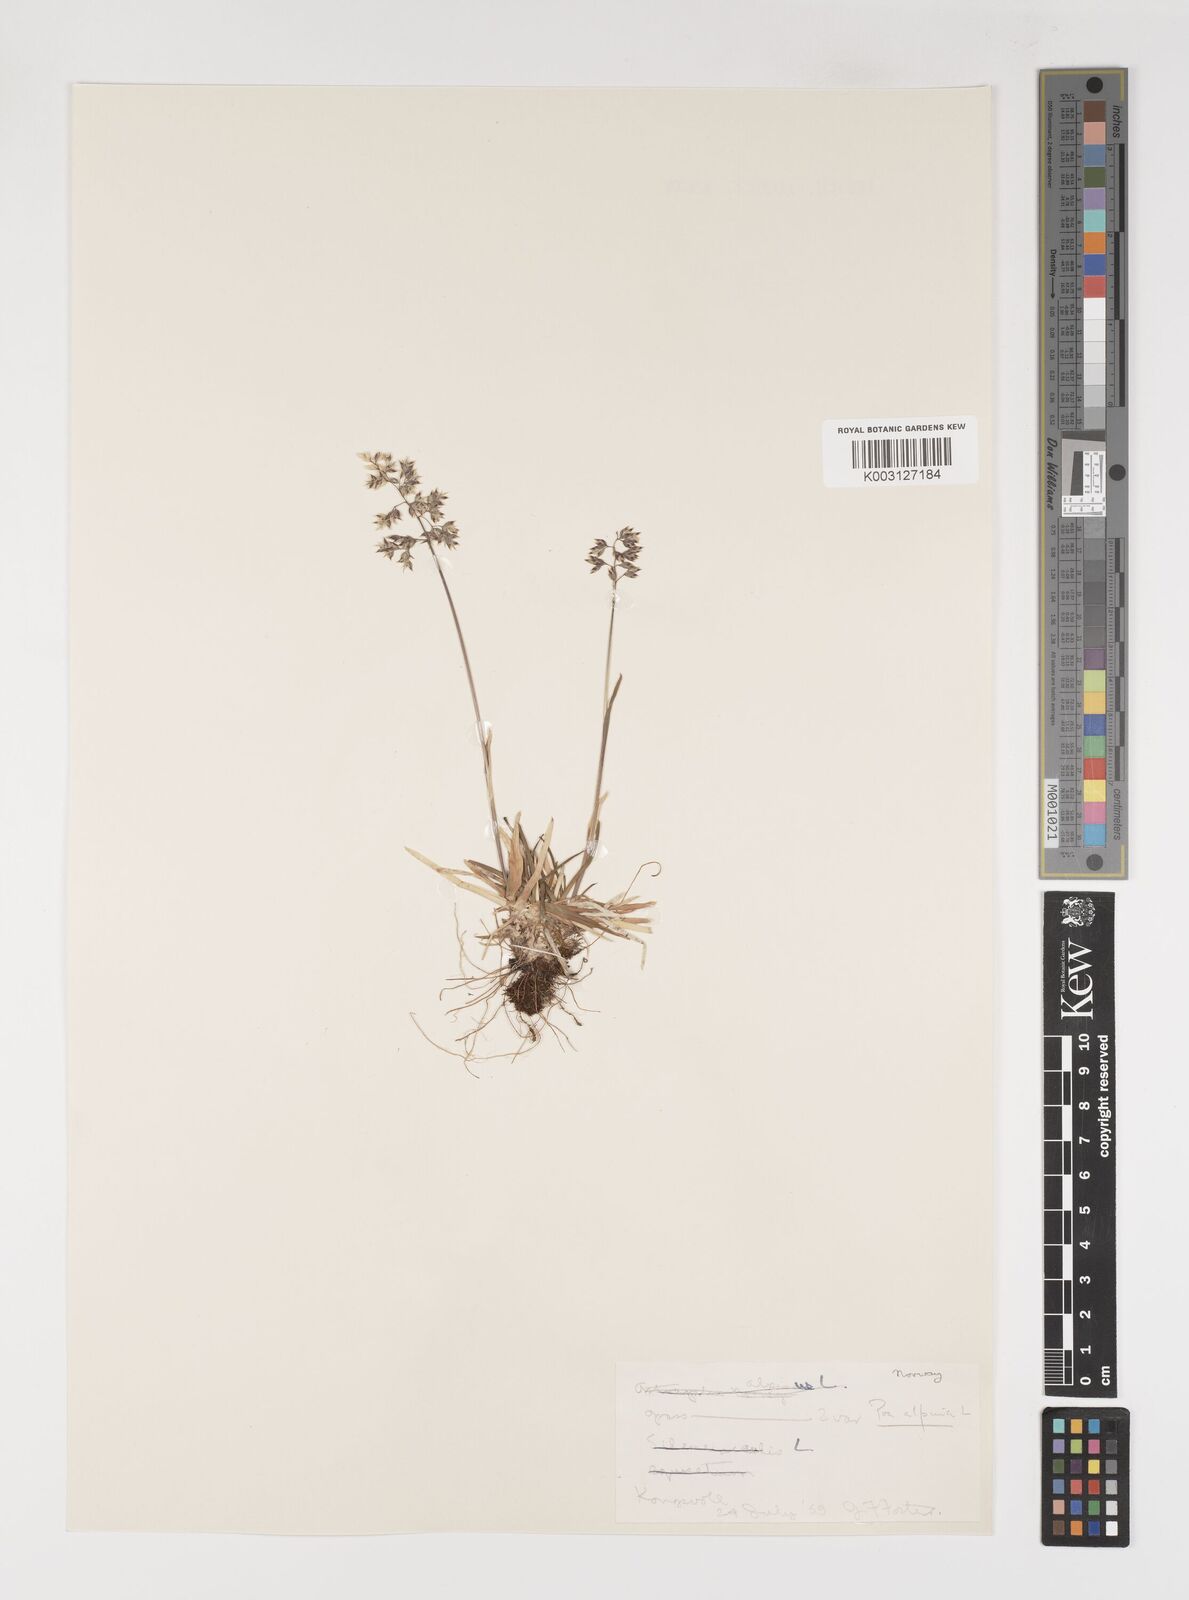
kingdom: Plantae
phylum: Tracheophyta
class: Liliopsida
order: Poales
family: Poaceae
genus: Poa
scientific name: Poa alpina
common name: Alpine bluegrass
